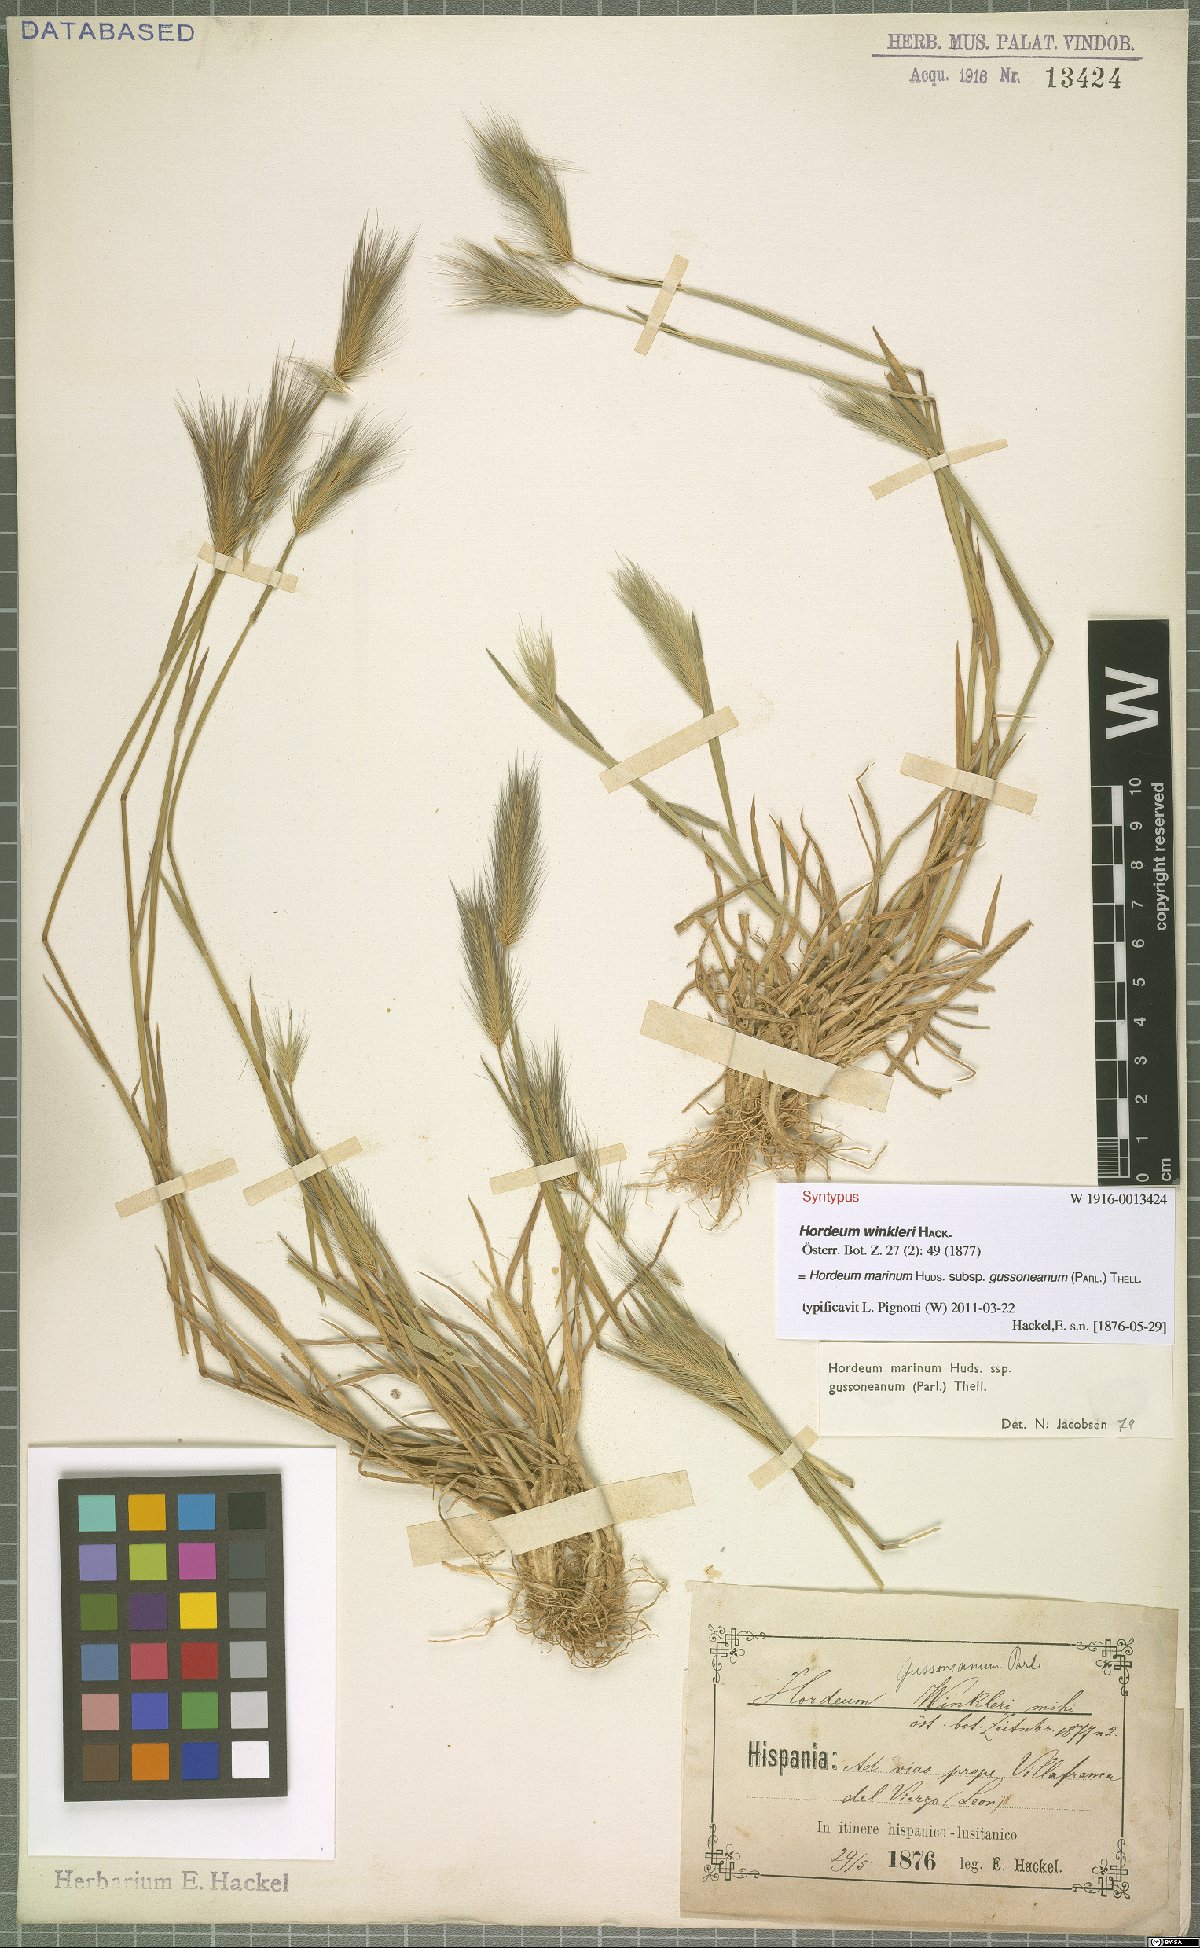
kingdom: Plantae
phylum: Tracheophyta
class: Liliopsida
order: Poales
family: Poaceae
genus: Hordeum
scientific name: Hordeum marinum
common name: Sea barley
